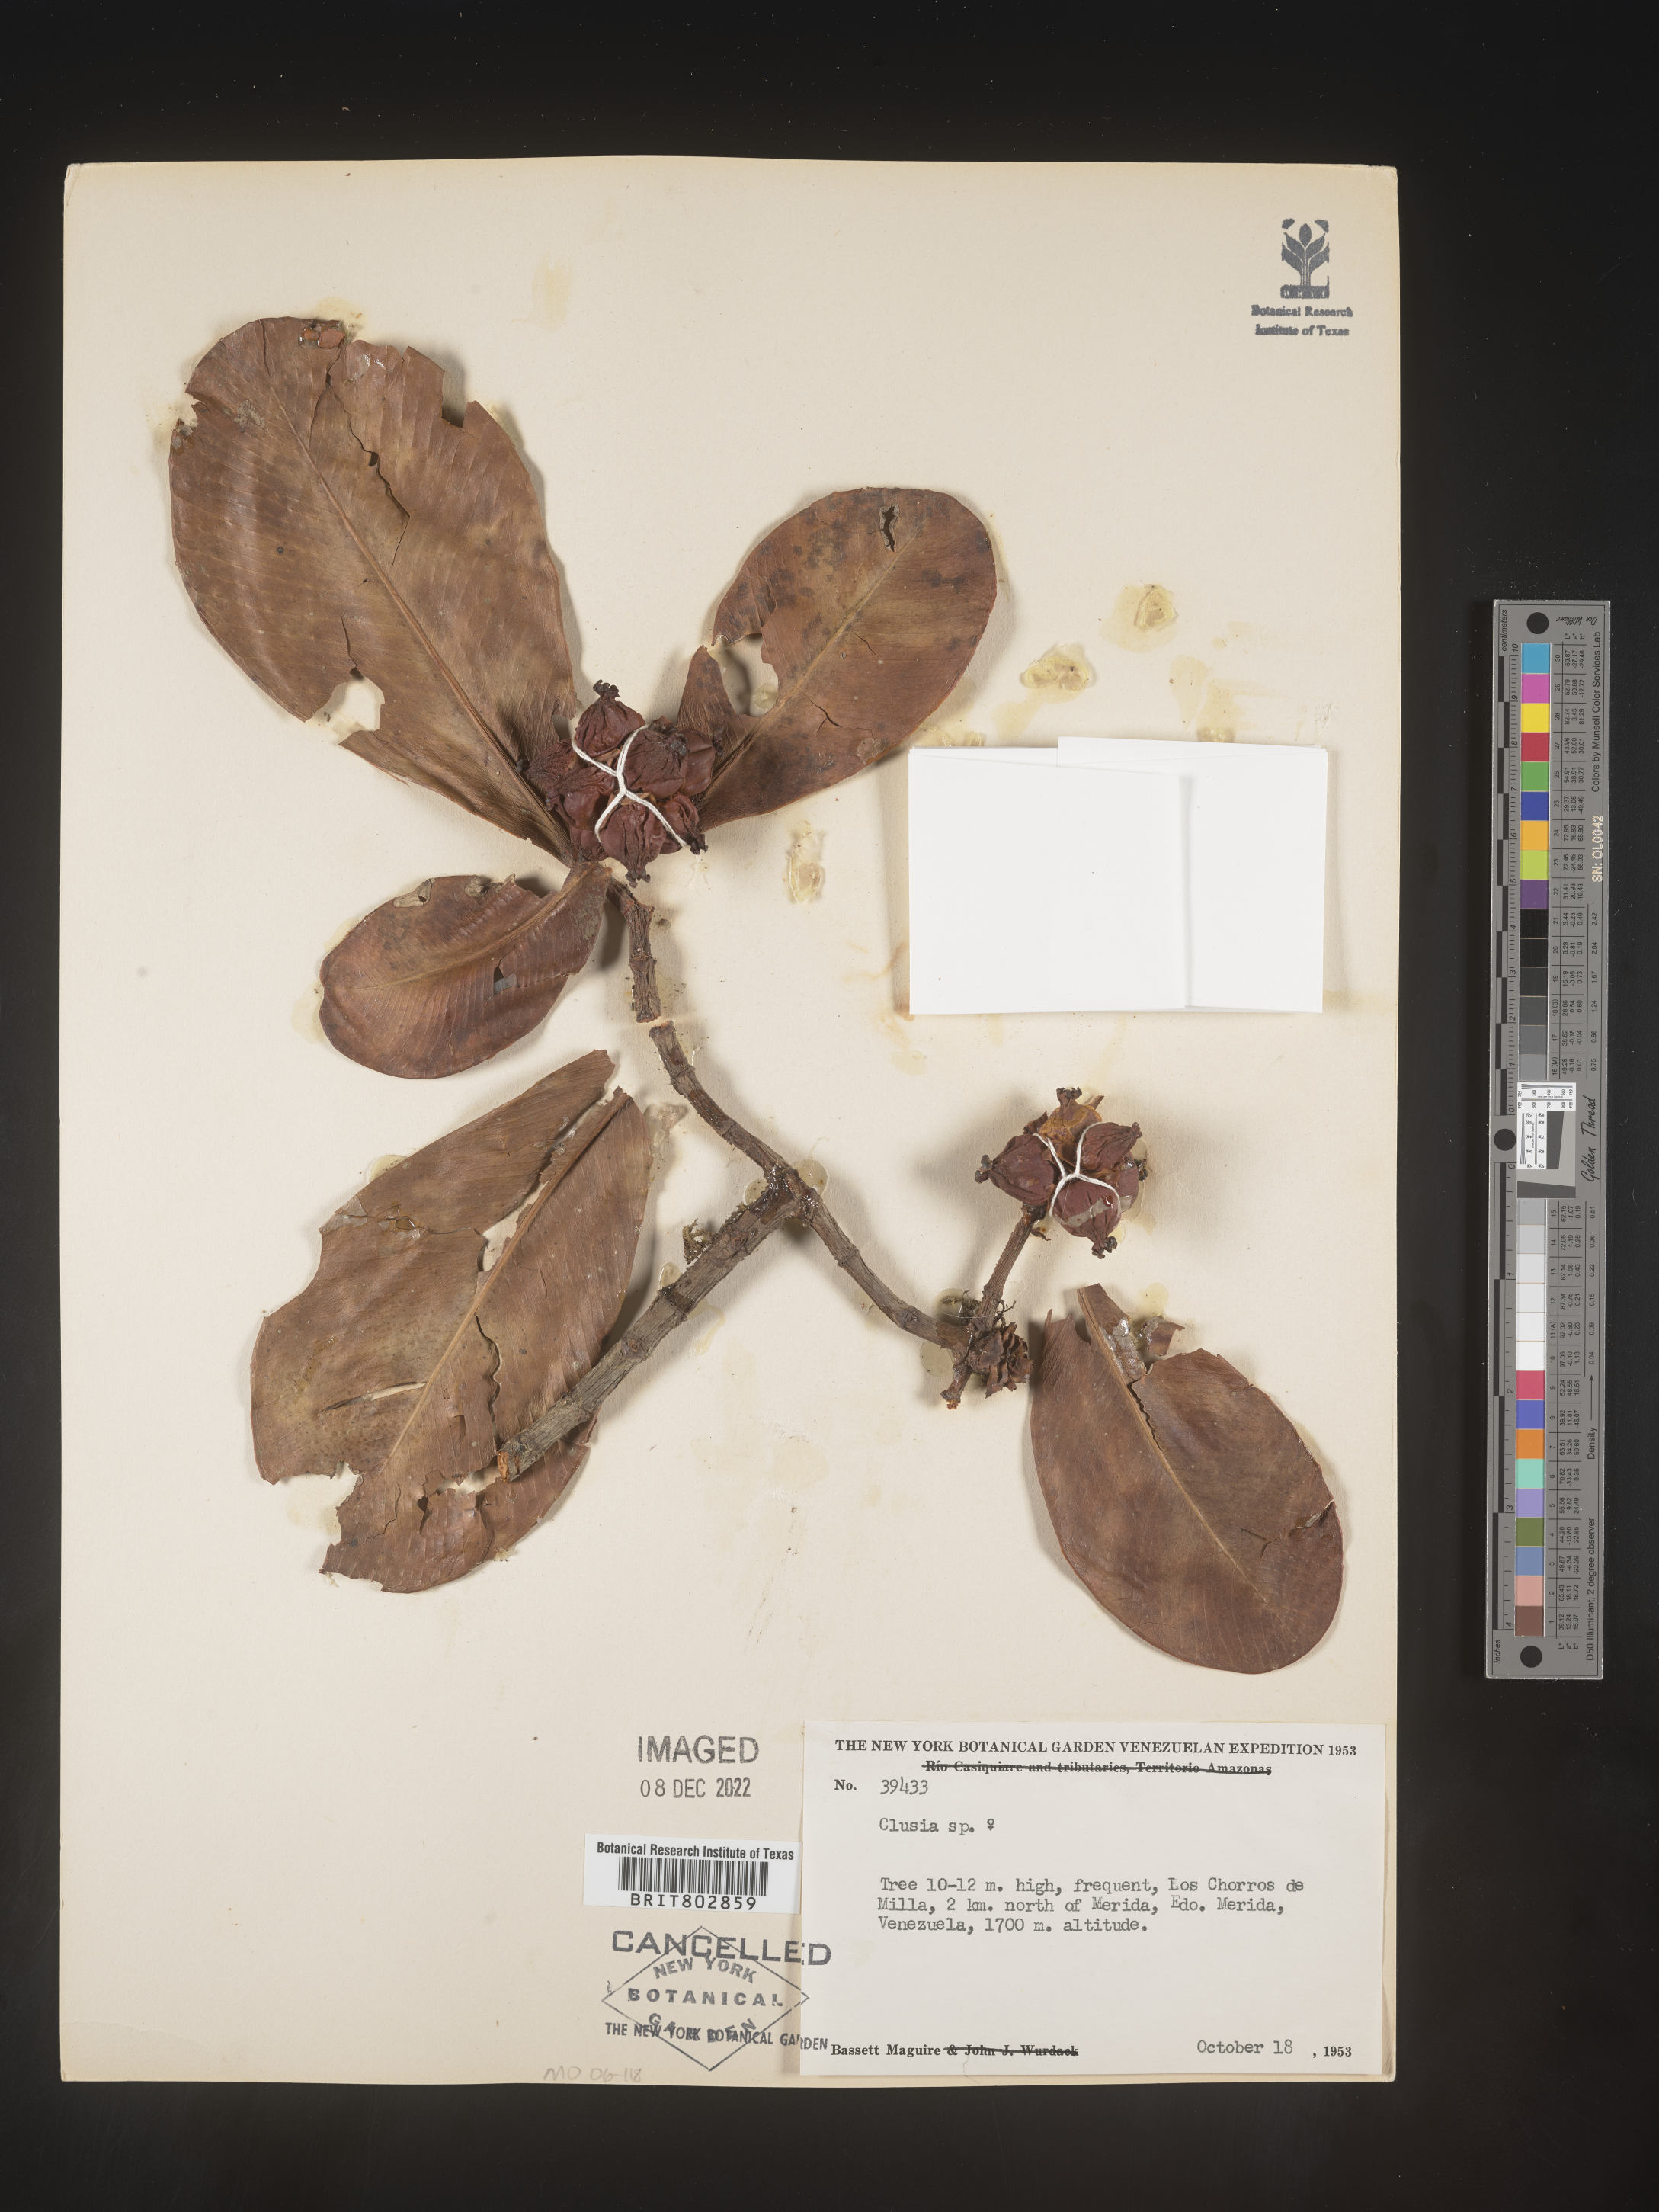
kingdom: Plantae
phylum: Tracheophyta
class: Magnoliopsida
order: Malpighiales
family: Clusiaceae
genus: Clusia
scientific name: Clusia
